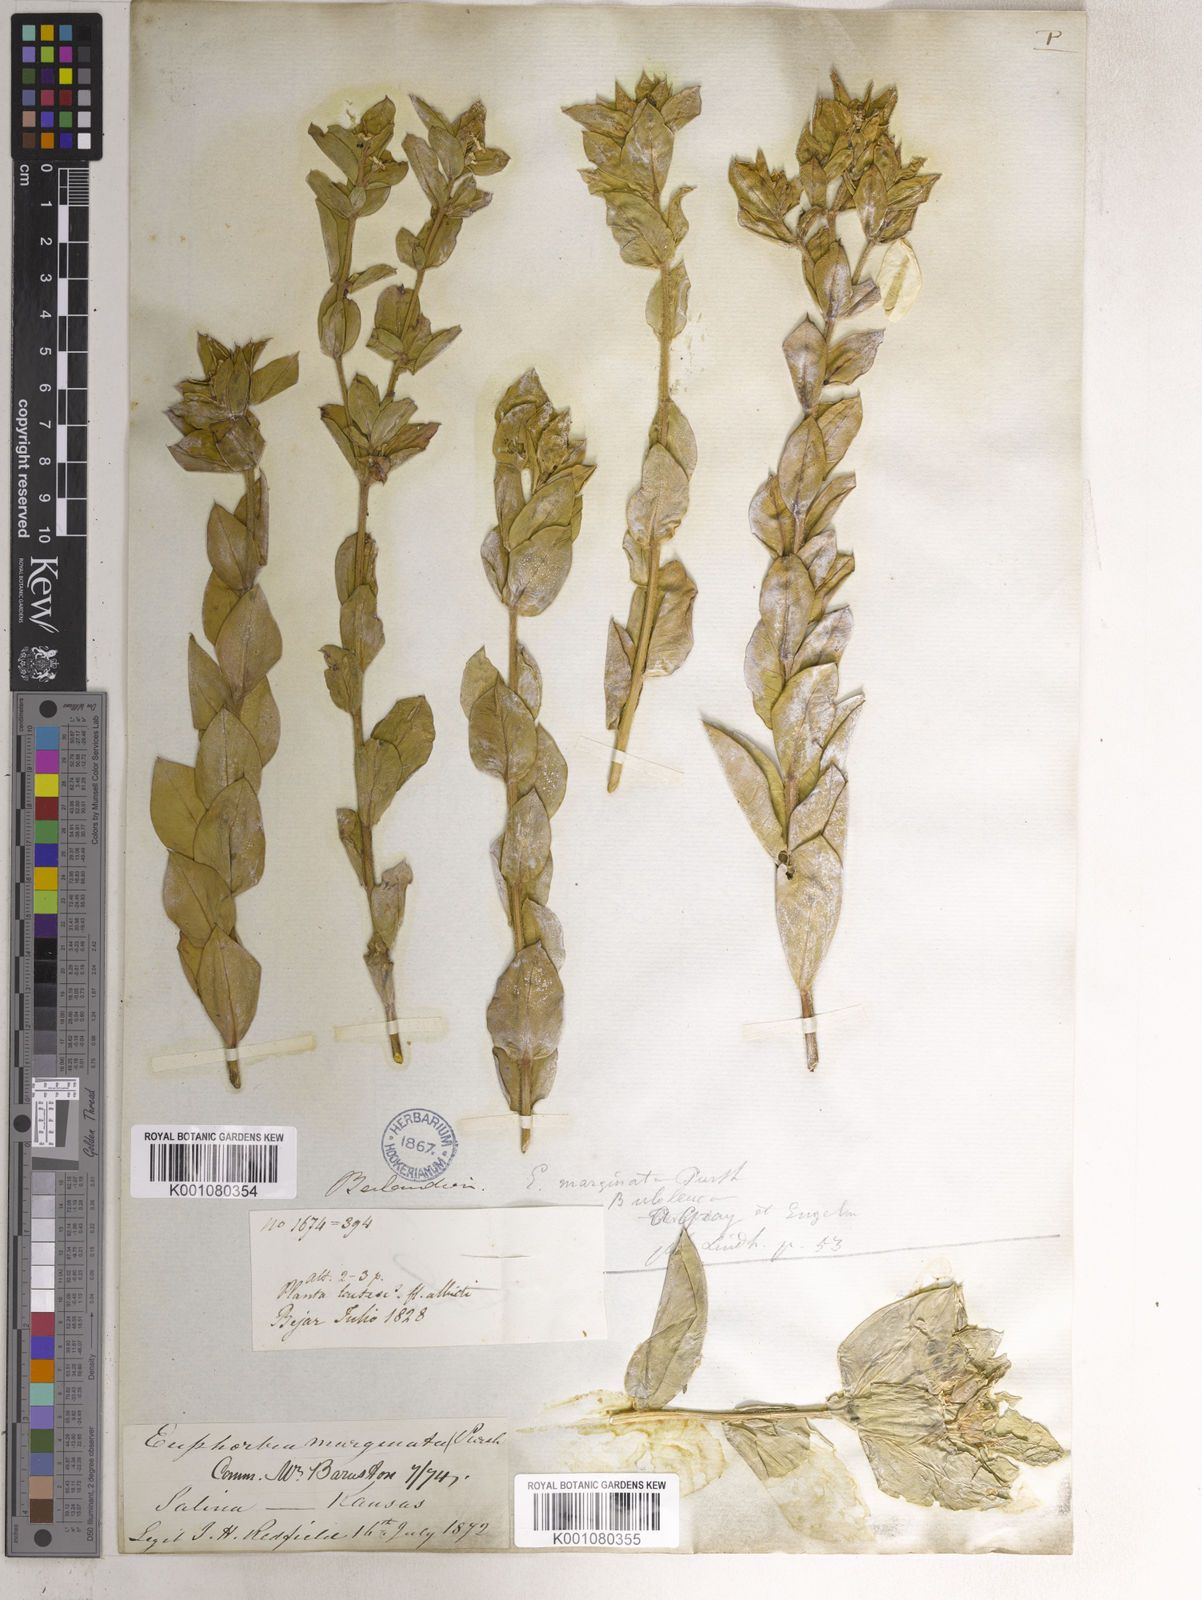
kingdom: Plantae
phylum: Tracheophyta
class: Magnoliopsida
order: Malpighiales
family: Euphorbiaceae
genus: Euphorbia
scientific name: Euphorbia marginata
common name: Ghostweed
